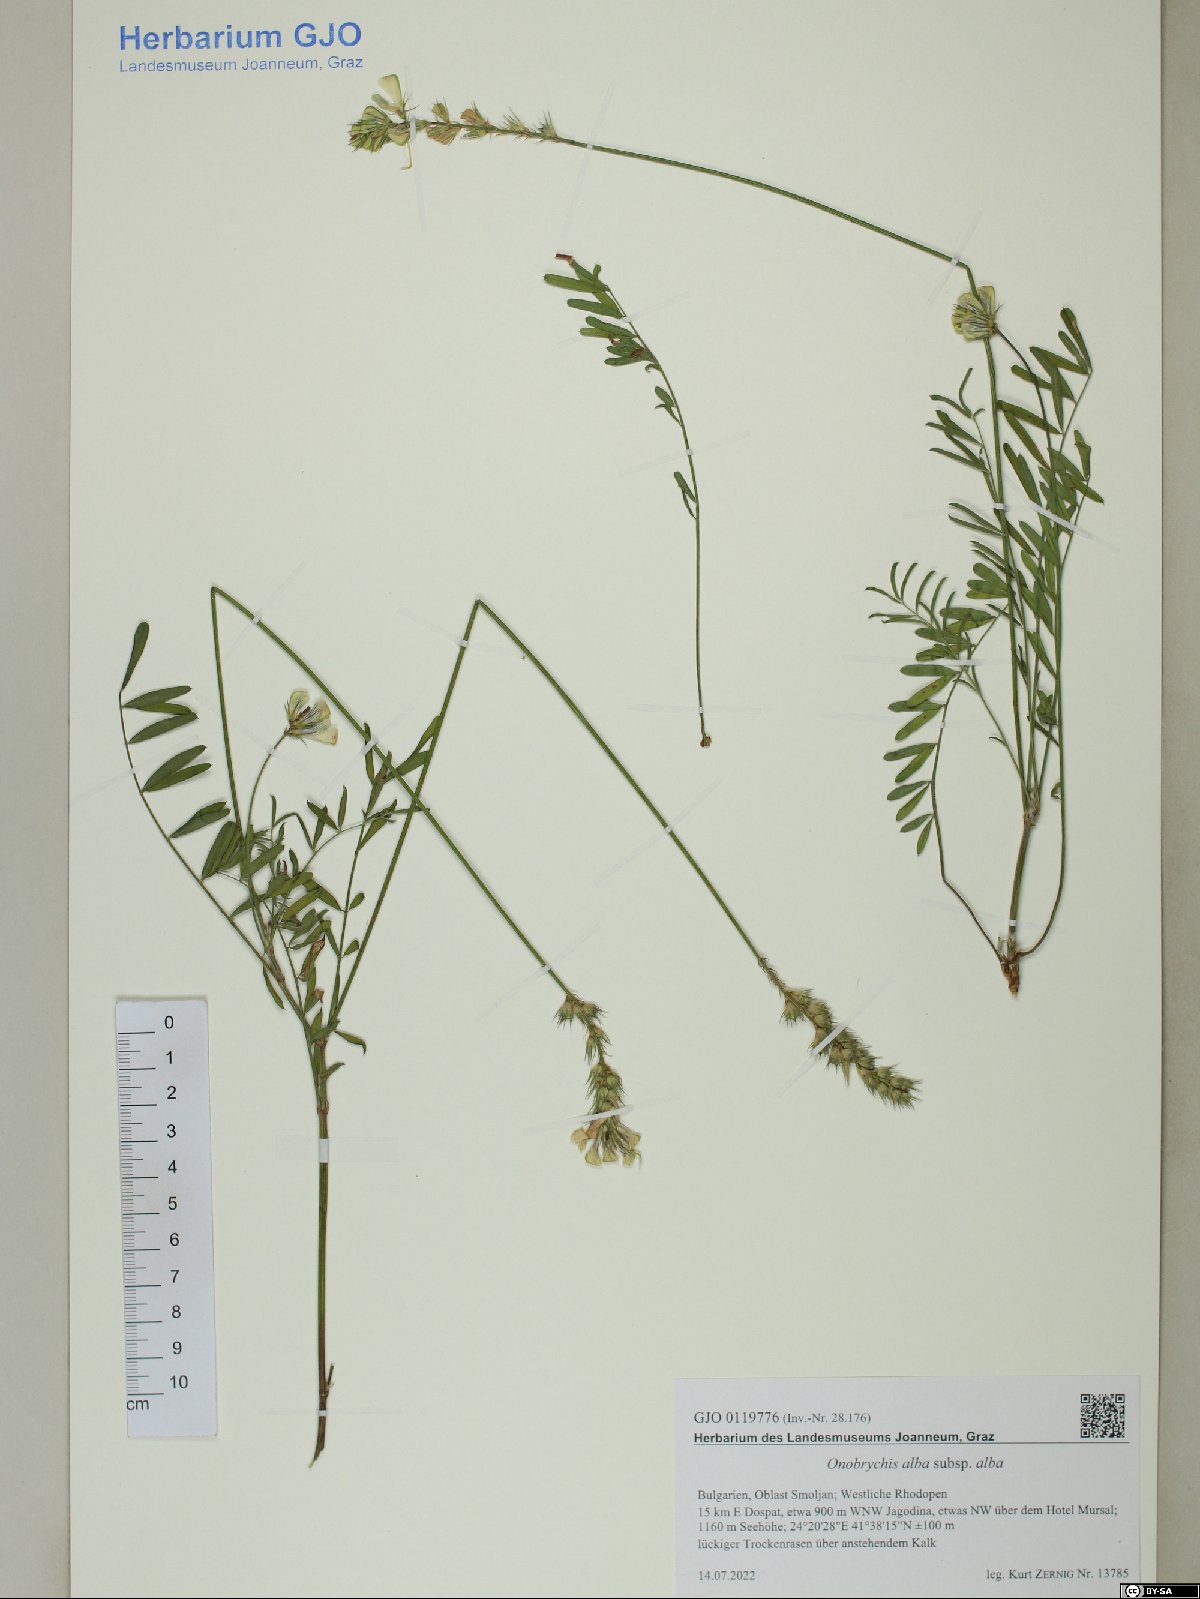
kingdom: Plantae
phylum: Tracheophyta
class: Magnoliopsida
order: Fabales
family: Fabaceae
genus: Onobrychis
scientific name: Onobrychis alba
